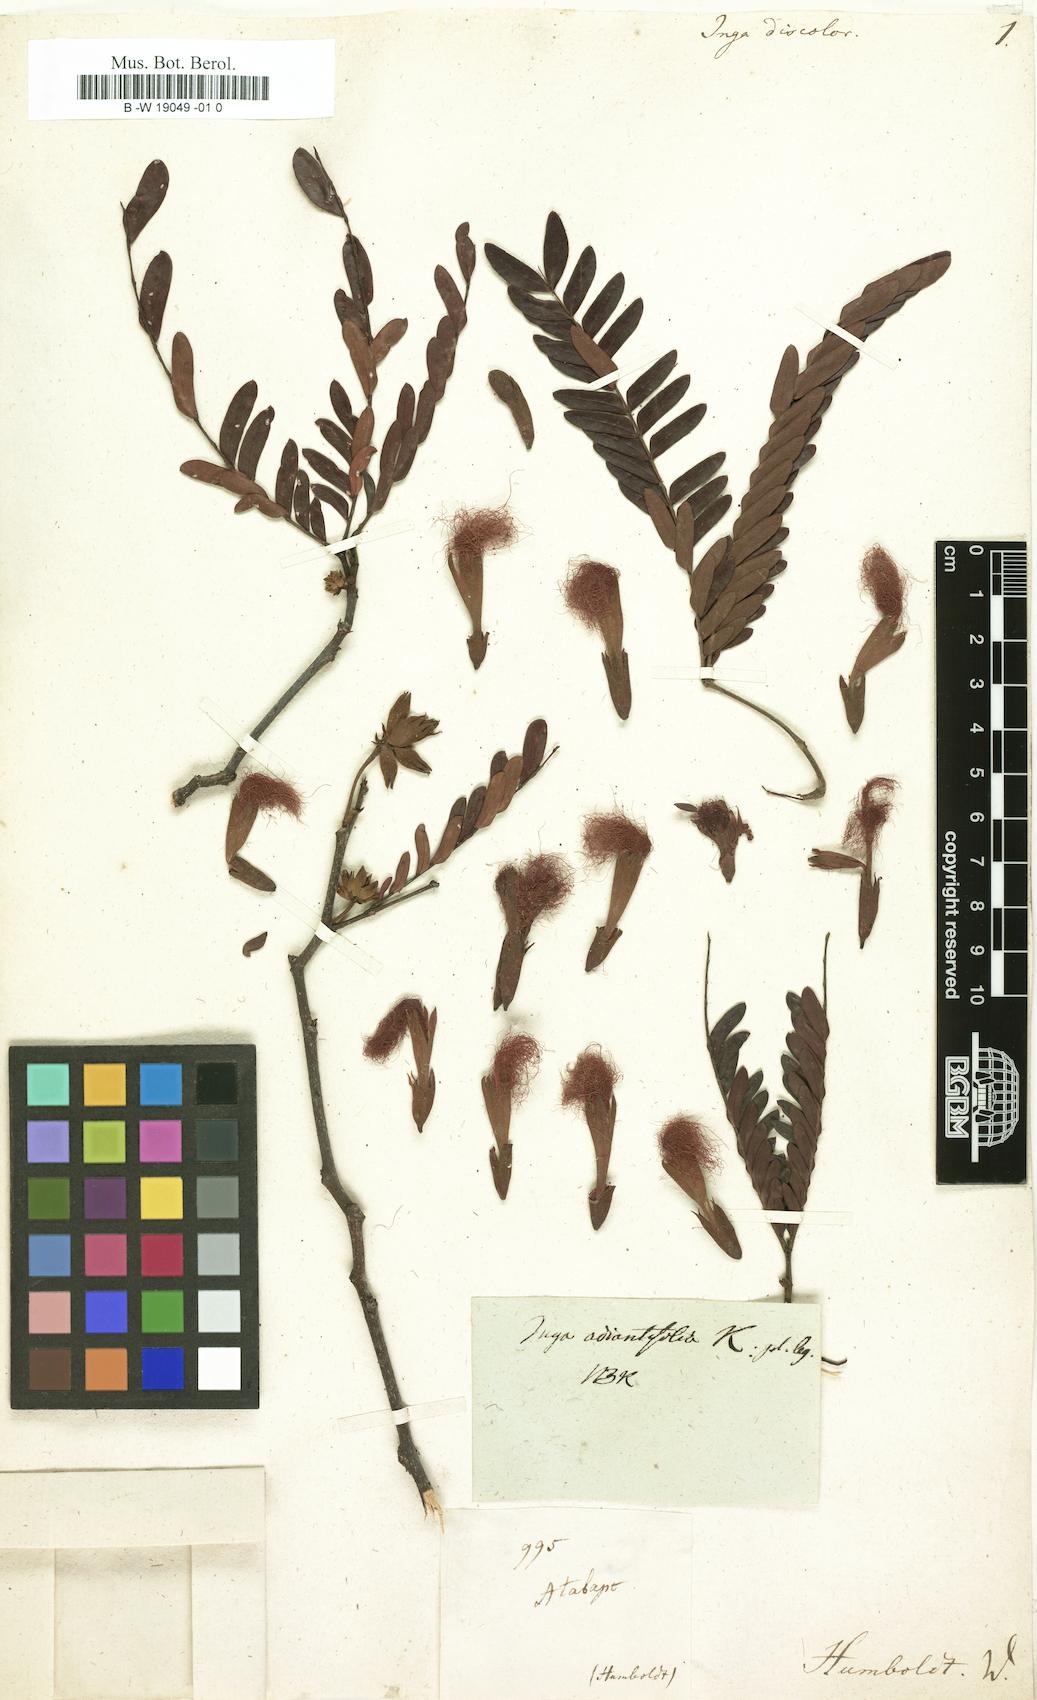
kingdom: Plantae
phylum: Tracheophyta
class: Magnoliopsida
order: Fabales
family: Fabaceae
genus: Macrosamanea
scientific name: Macrosamanea discolor
